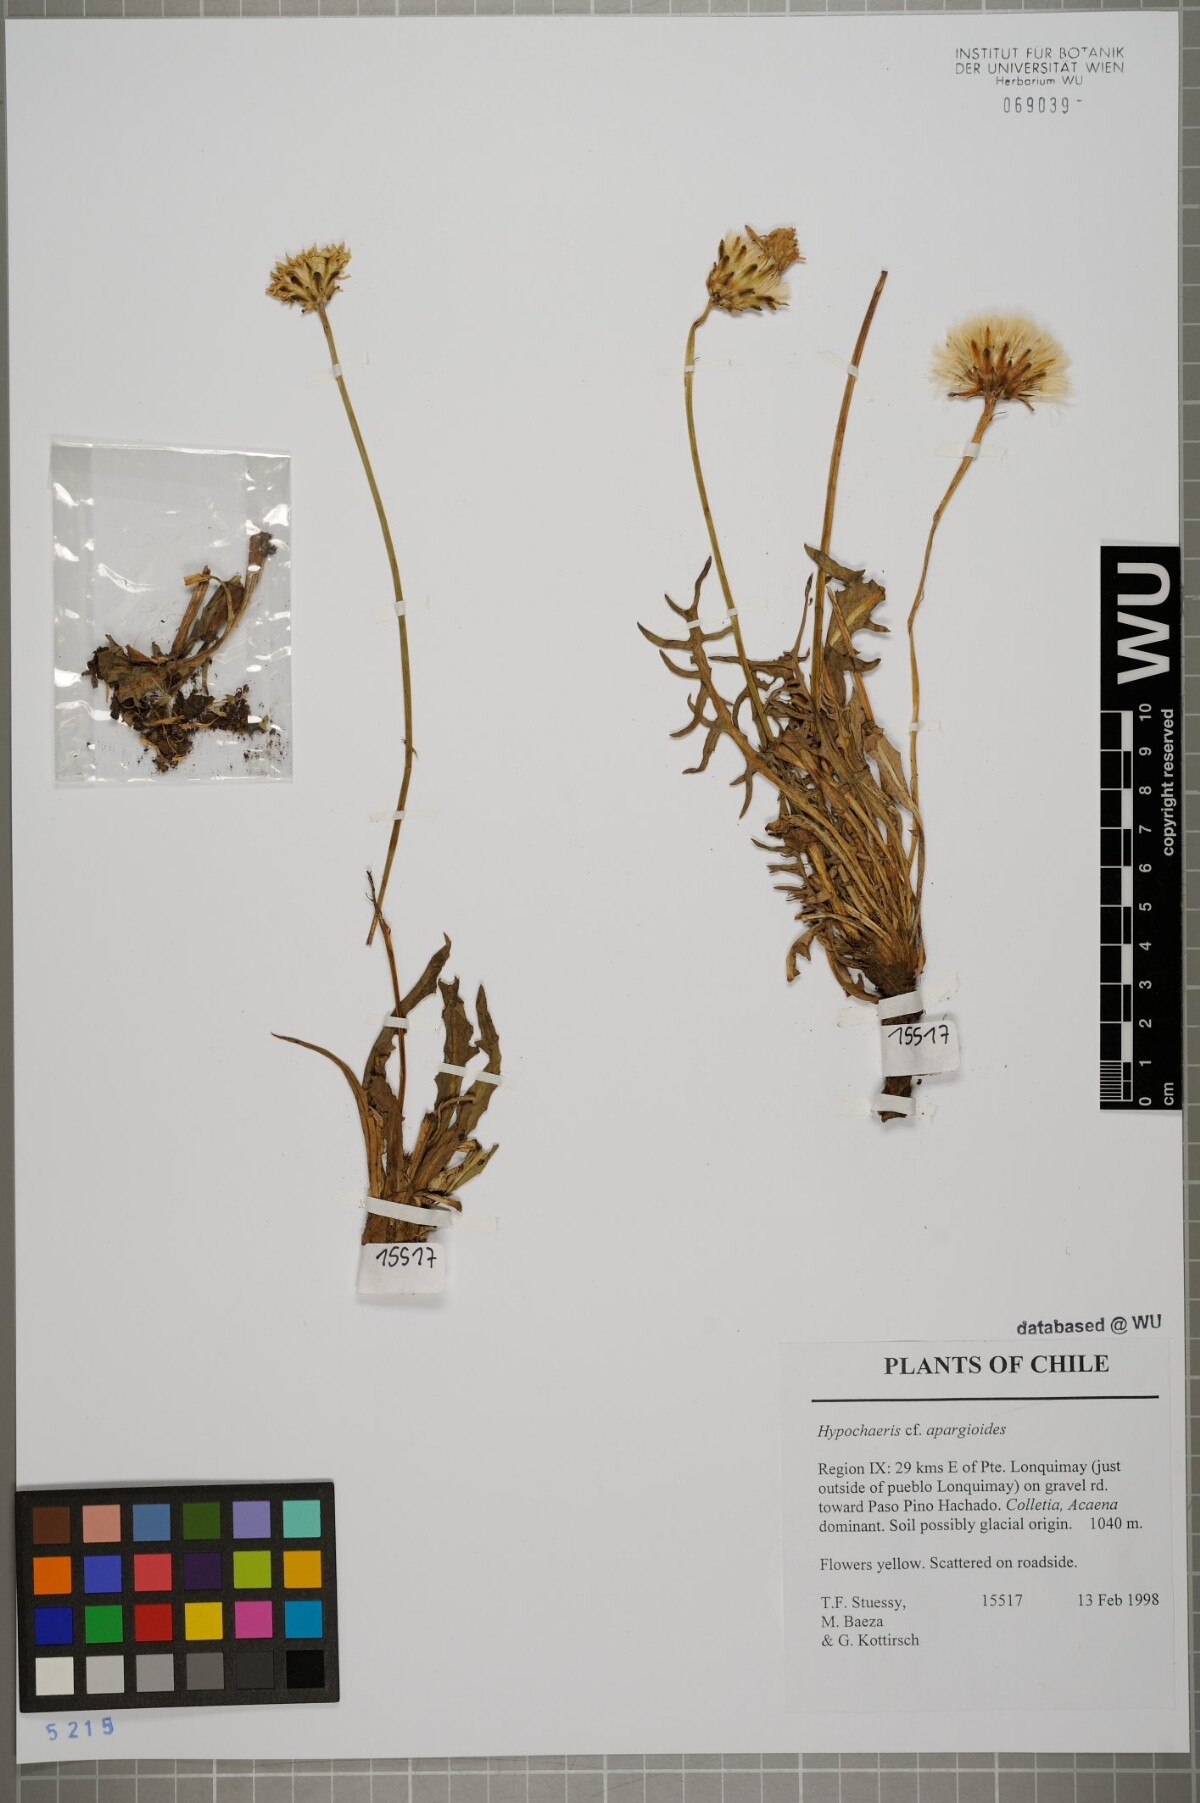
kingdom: Plantae
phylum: Tracheophyta
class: Magnoliopsida
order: Asterales
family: Asteraceae
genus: Hypochaeris
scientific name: Hypochaeris apargioides
